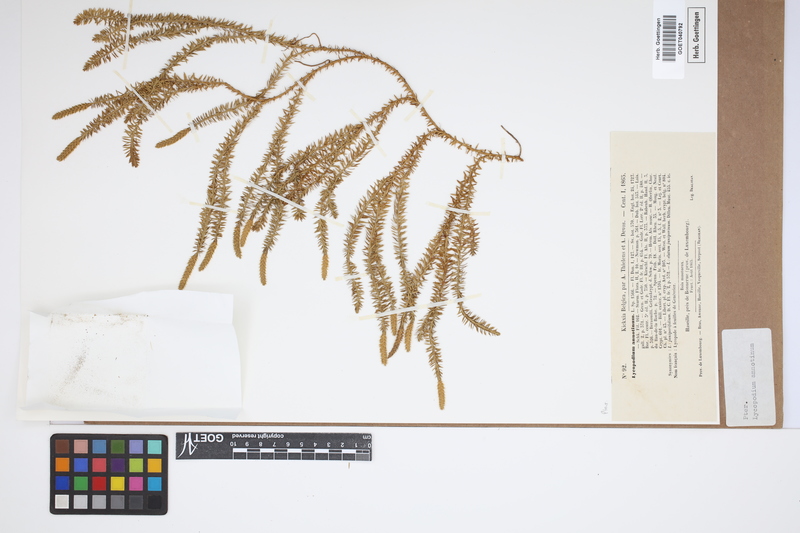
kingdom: Plantae
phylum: Tracheophyta
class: Lycopodiopsida
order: Lycopodiales
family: Lycopodiaceae
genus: Spinulum
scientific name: Spinulum annotinum
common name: Interrupted club-moss
